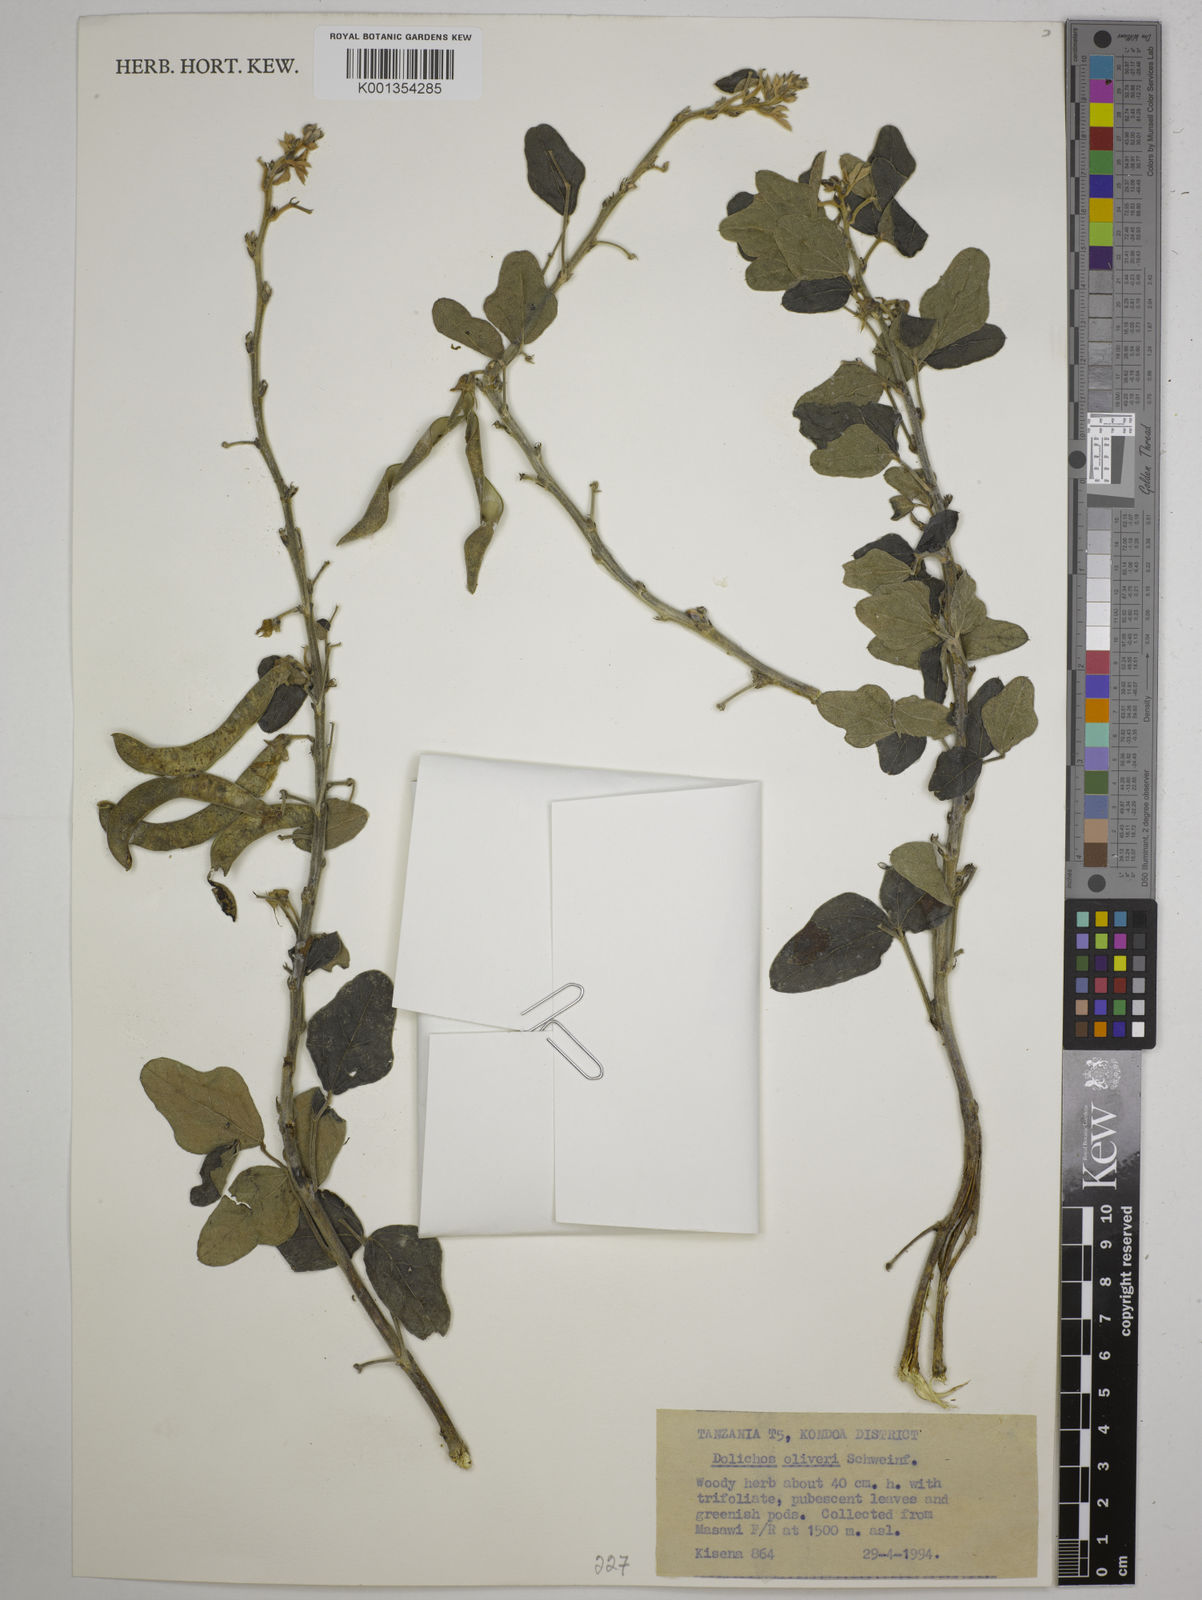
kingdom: Plantae
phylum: Tracheophyta
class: Magnoliopsida
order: Fabales
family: Fabaceae
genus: Dolichos
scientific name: Dolichos oliveri
